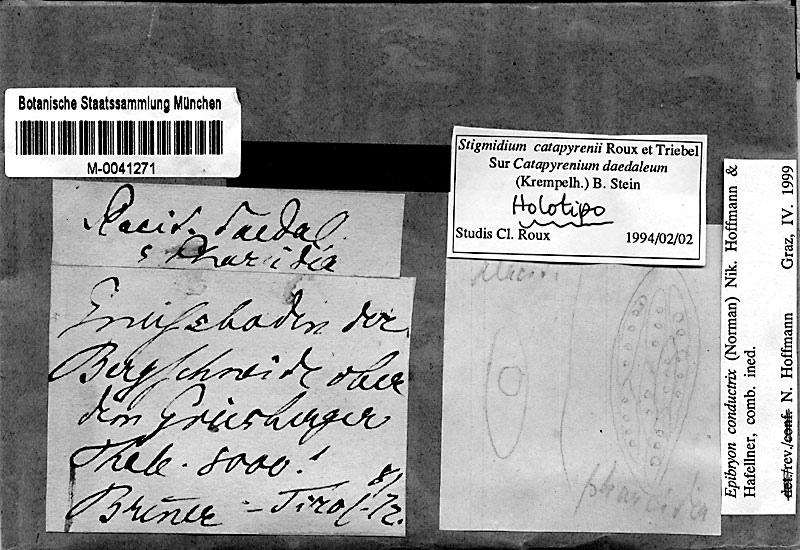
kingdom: Fungi
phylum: Ascomycota
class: Eurotiomycetes
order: Chaetothyriales
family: Epibryaceae
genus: Epibryon
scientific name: Epibryon conductrix
